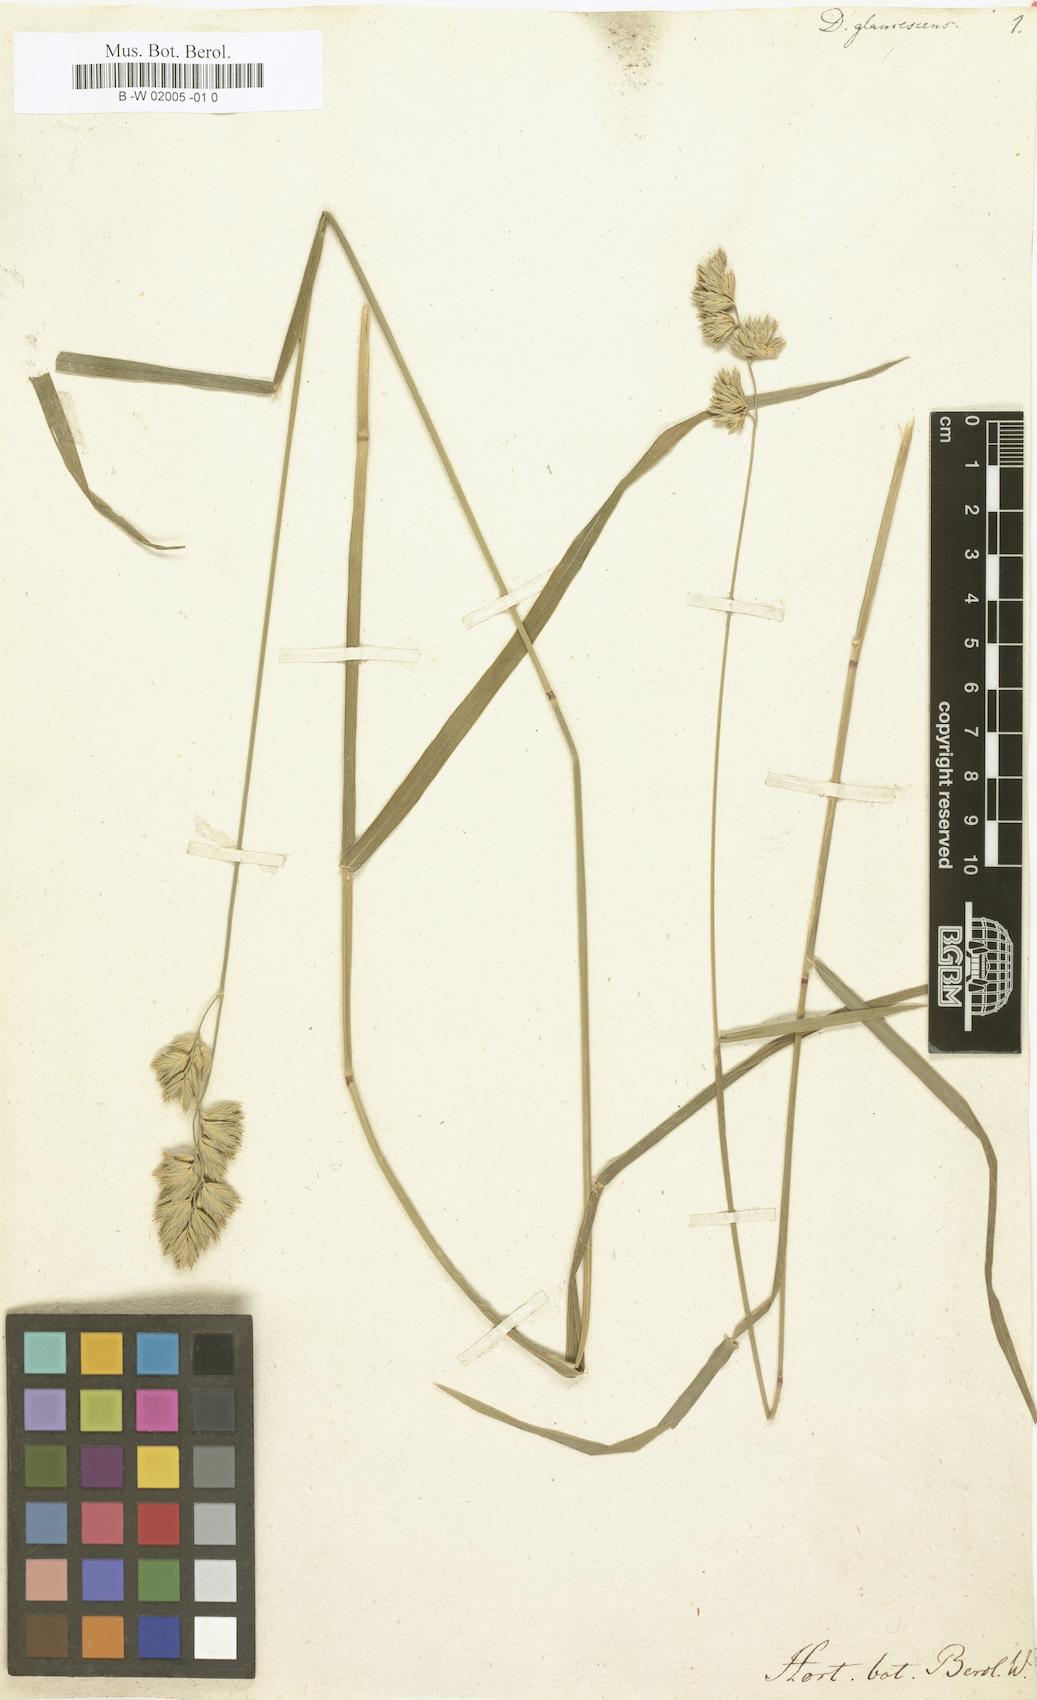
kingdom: Plantae
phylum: Tracheophyta
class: Liliopsida
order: Poales
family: Poaceae
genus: Dactylis
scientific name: Dactylis glomerata
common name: Orchardgrass
